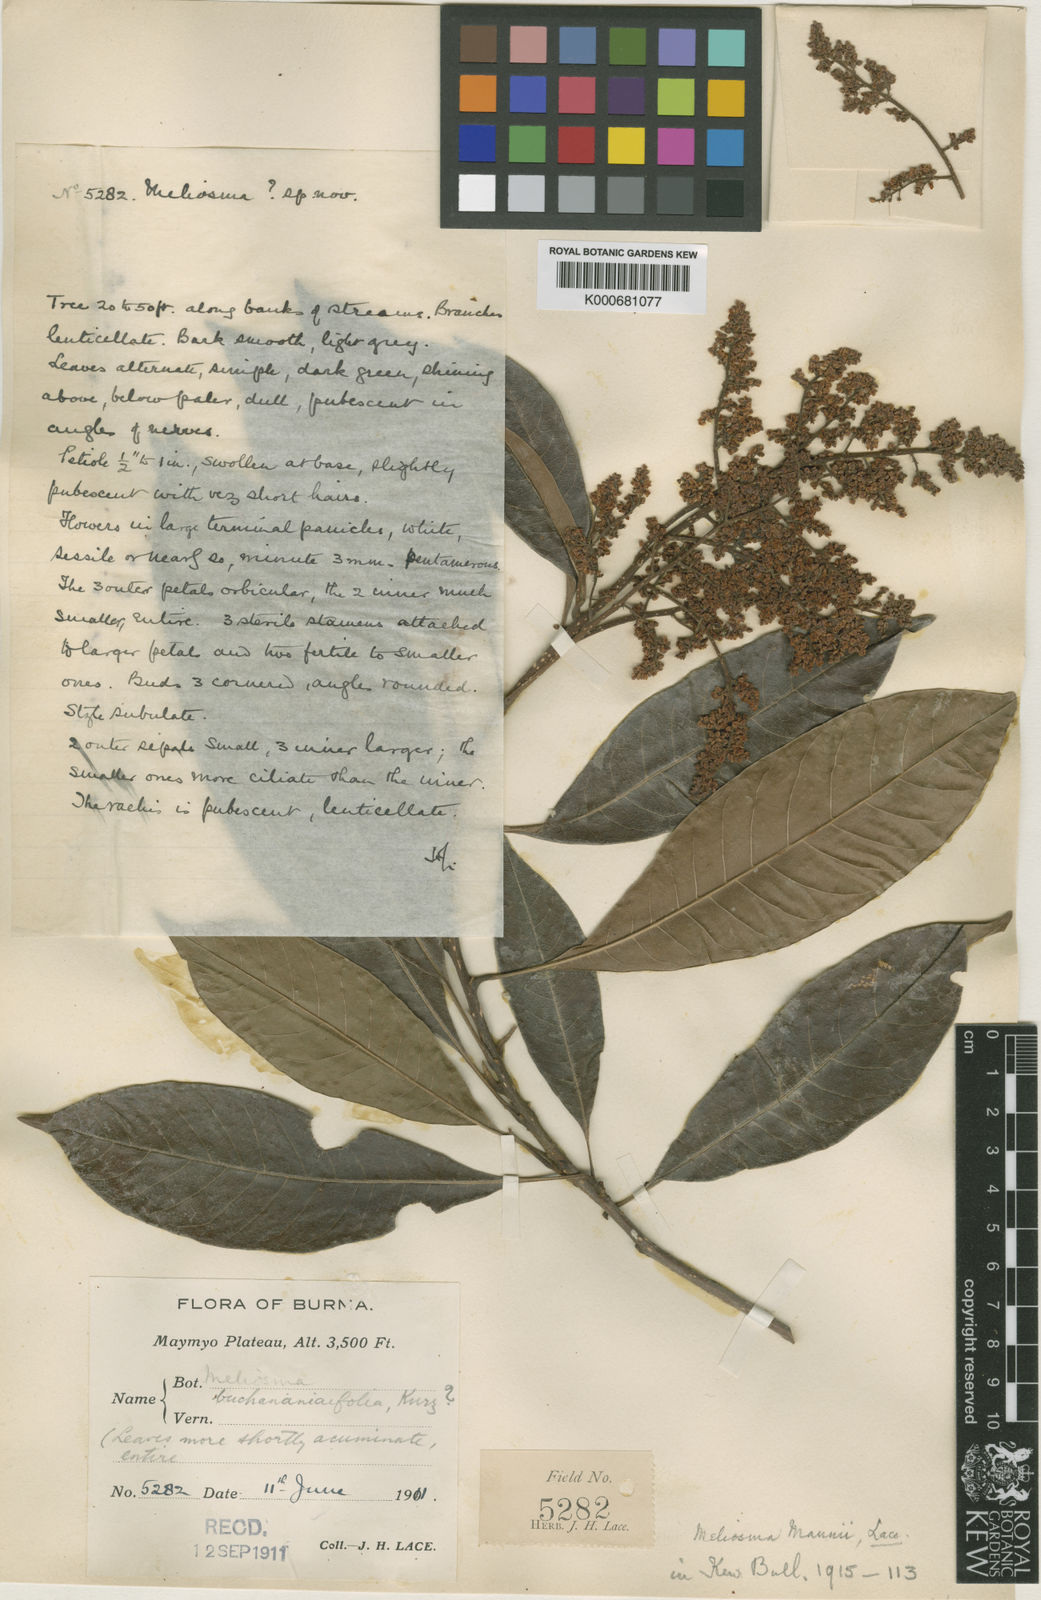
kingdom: Plantae
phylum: Tracheophyta
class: Magnoliopsida
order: Proteales
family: Sabiaceae
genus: Meliosma
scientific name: Meliosma thorelii
